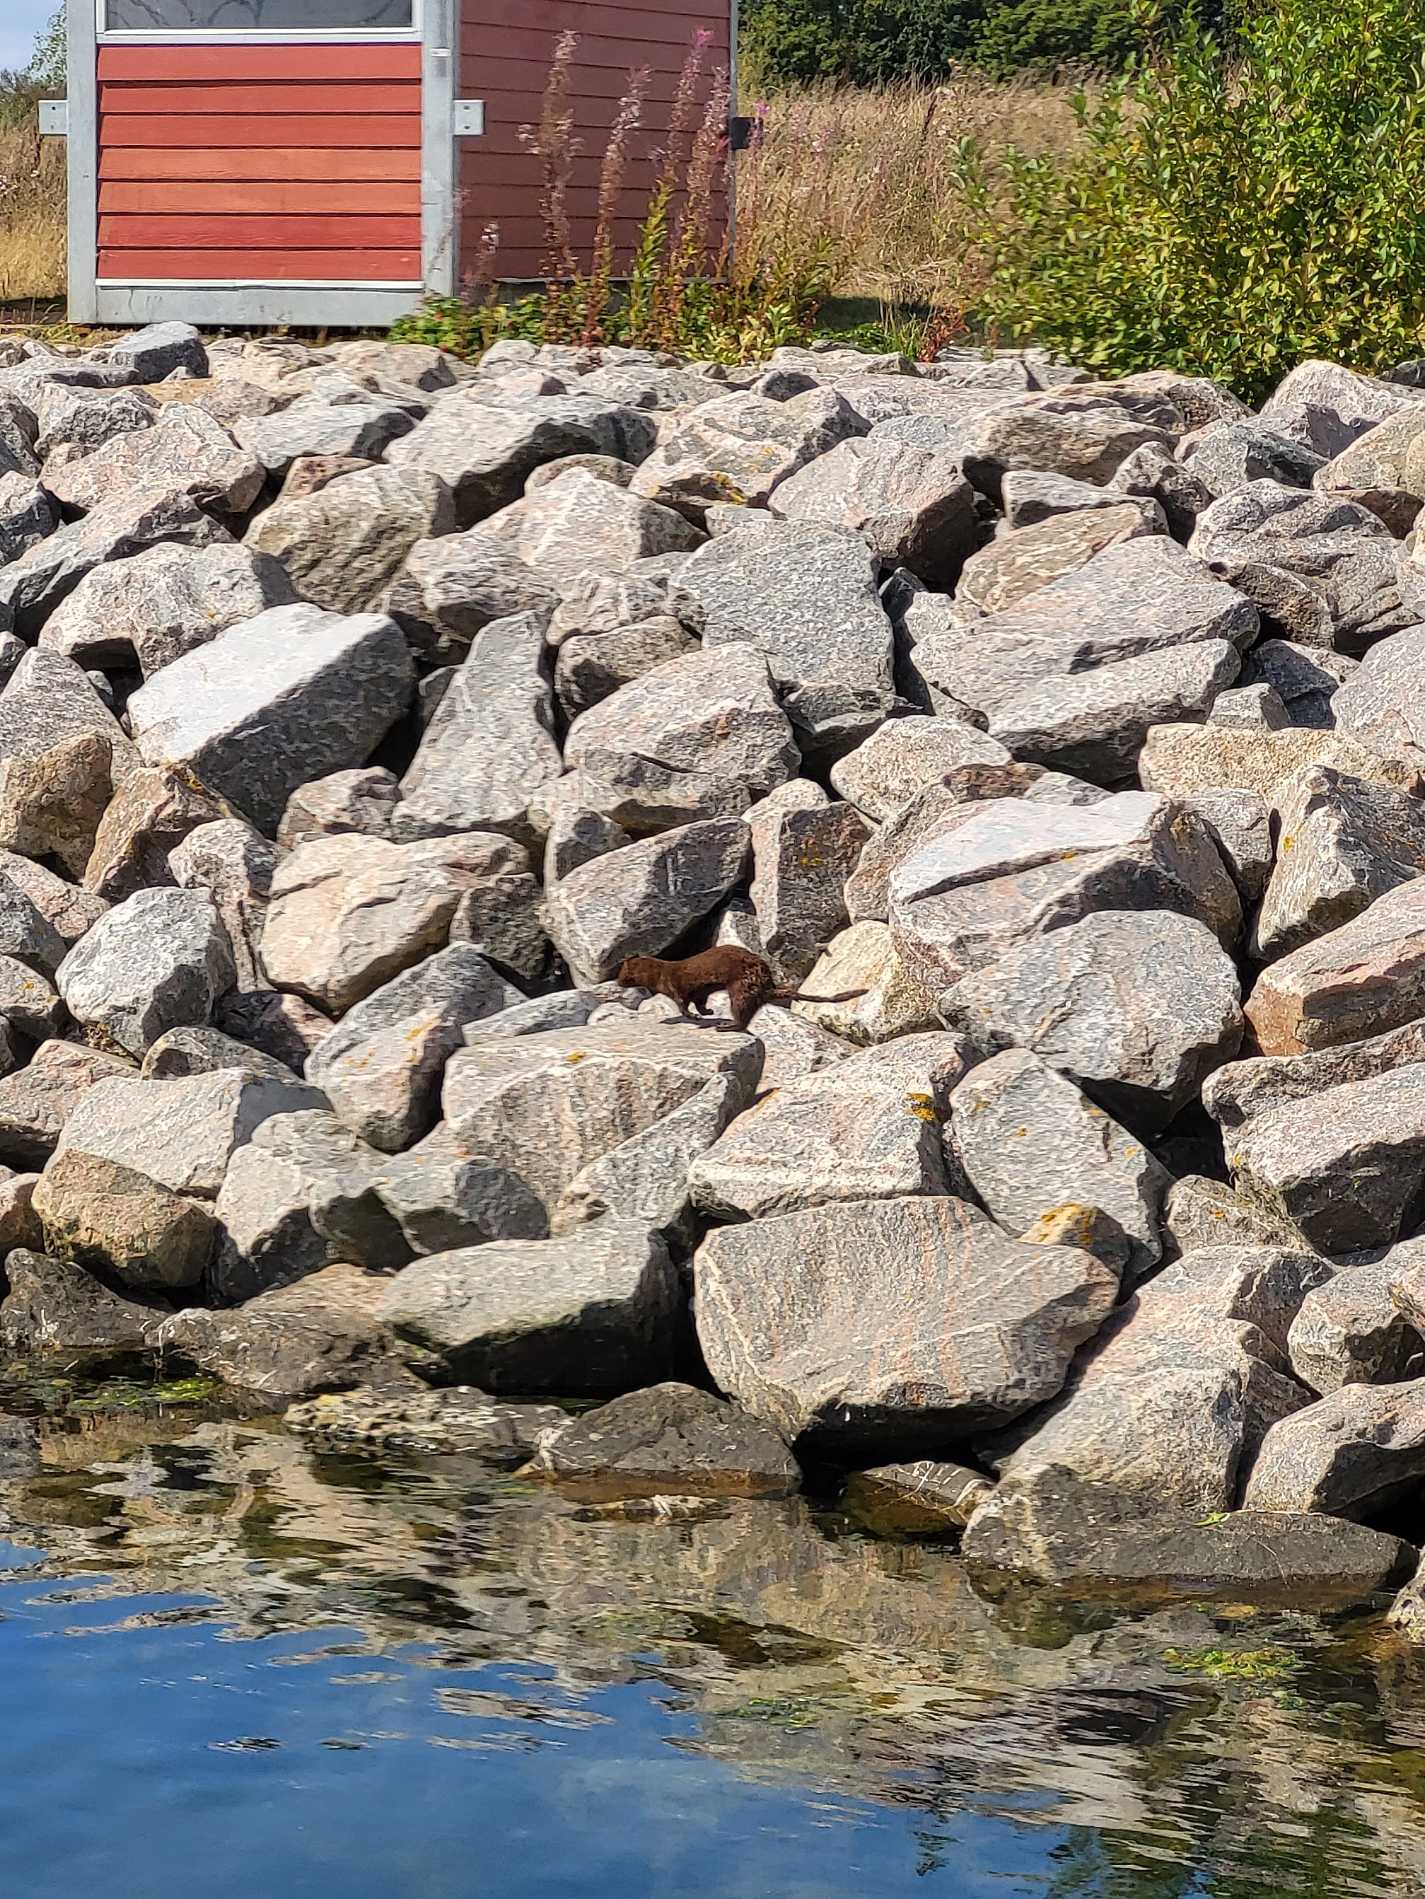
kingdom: Animalia
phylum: Chordata
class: Mammalia
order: Carnivora
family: Mustelidae
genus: Mustela
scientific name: Mustela vison
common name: Mink
